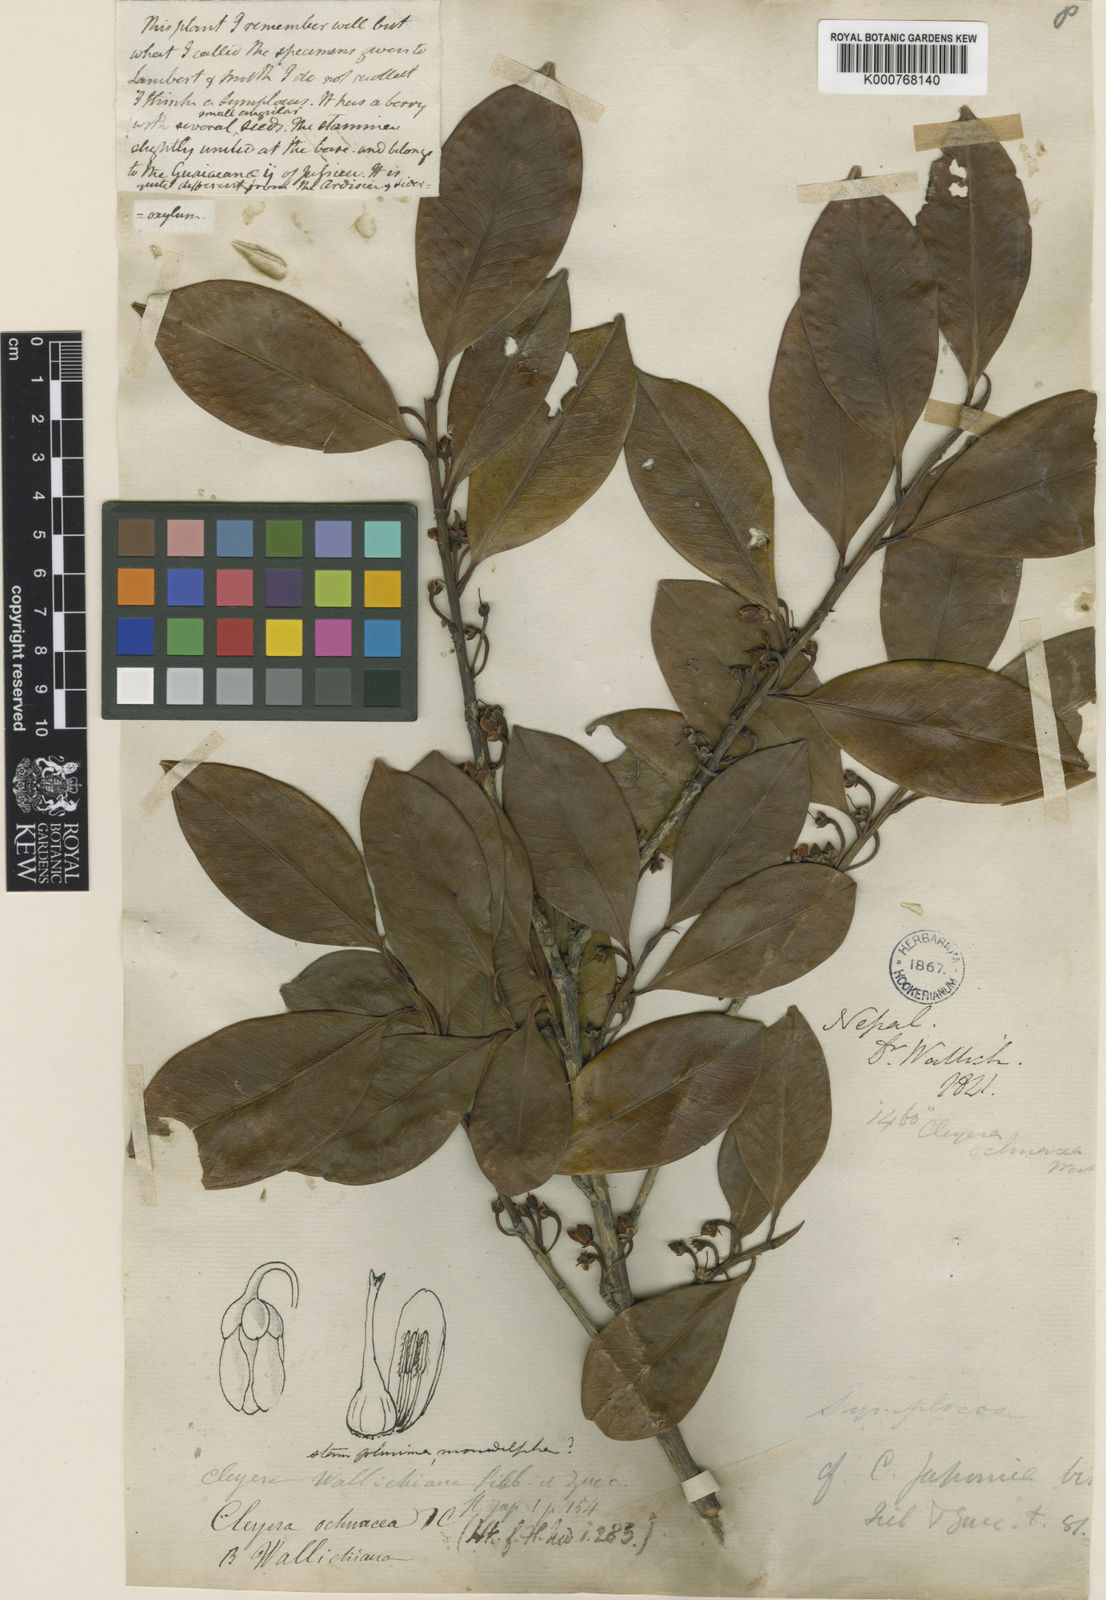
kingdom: Plantae
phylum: Tracheophyta
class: Magnoliopsida
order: Ericales
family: Pentaphylacaceae
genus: Cleyera
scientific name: Cleyera japonica
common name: Sakaki
